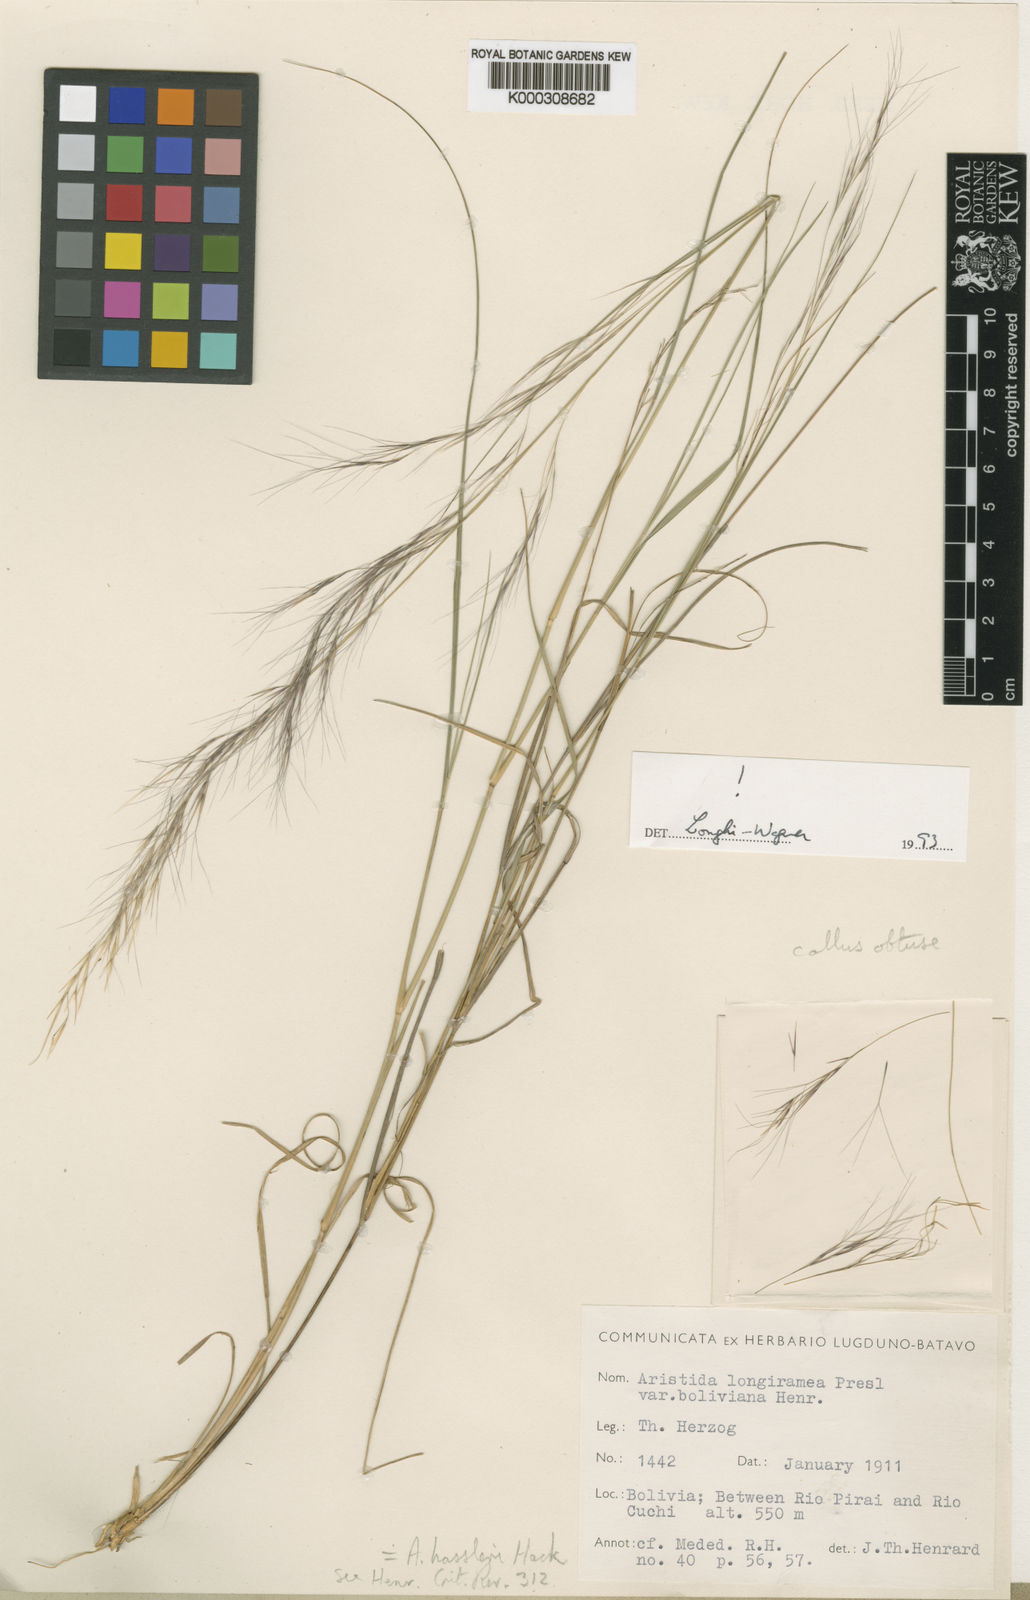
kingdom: Plantae
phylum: Tracheophyta
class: Liliopsida
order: Poales
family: Poaceae
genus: Aristida
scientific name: Aristida hassleri
